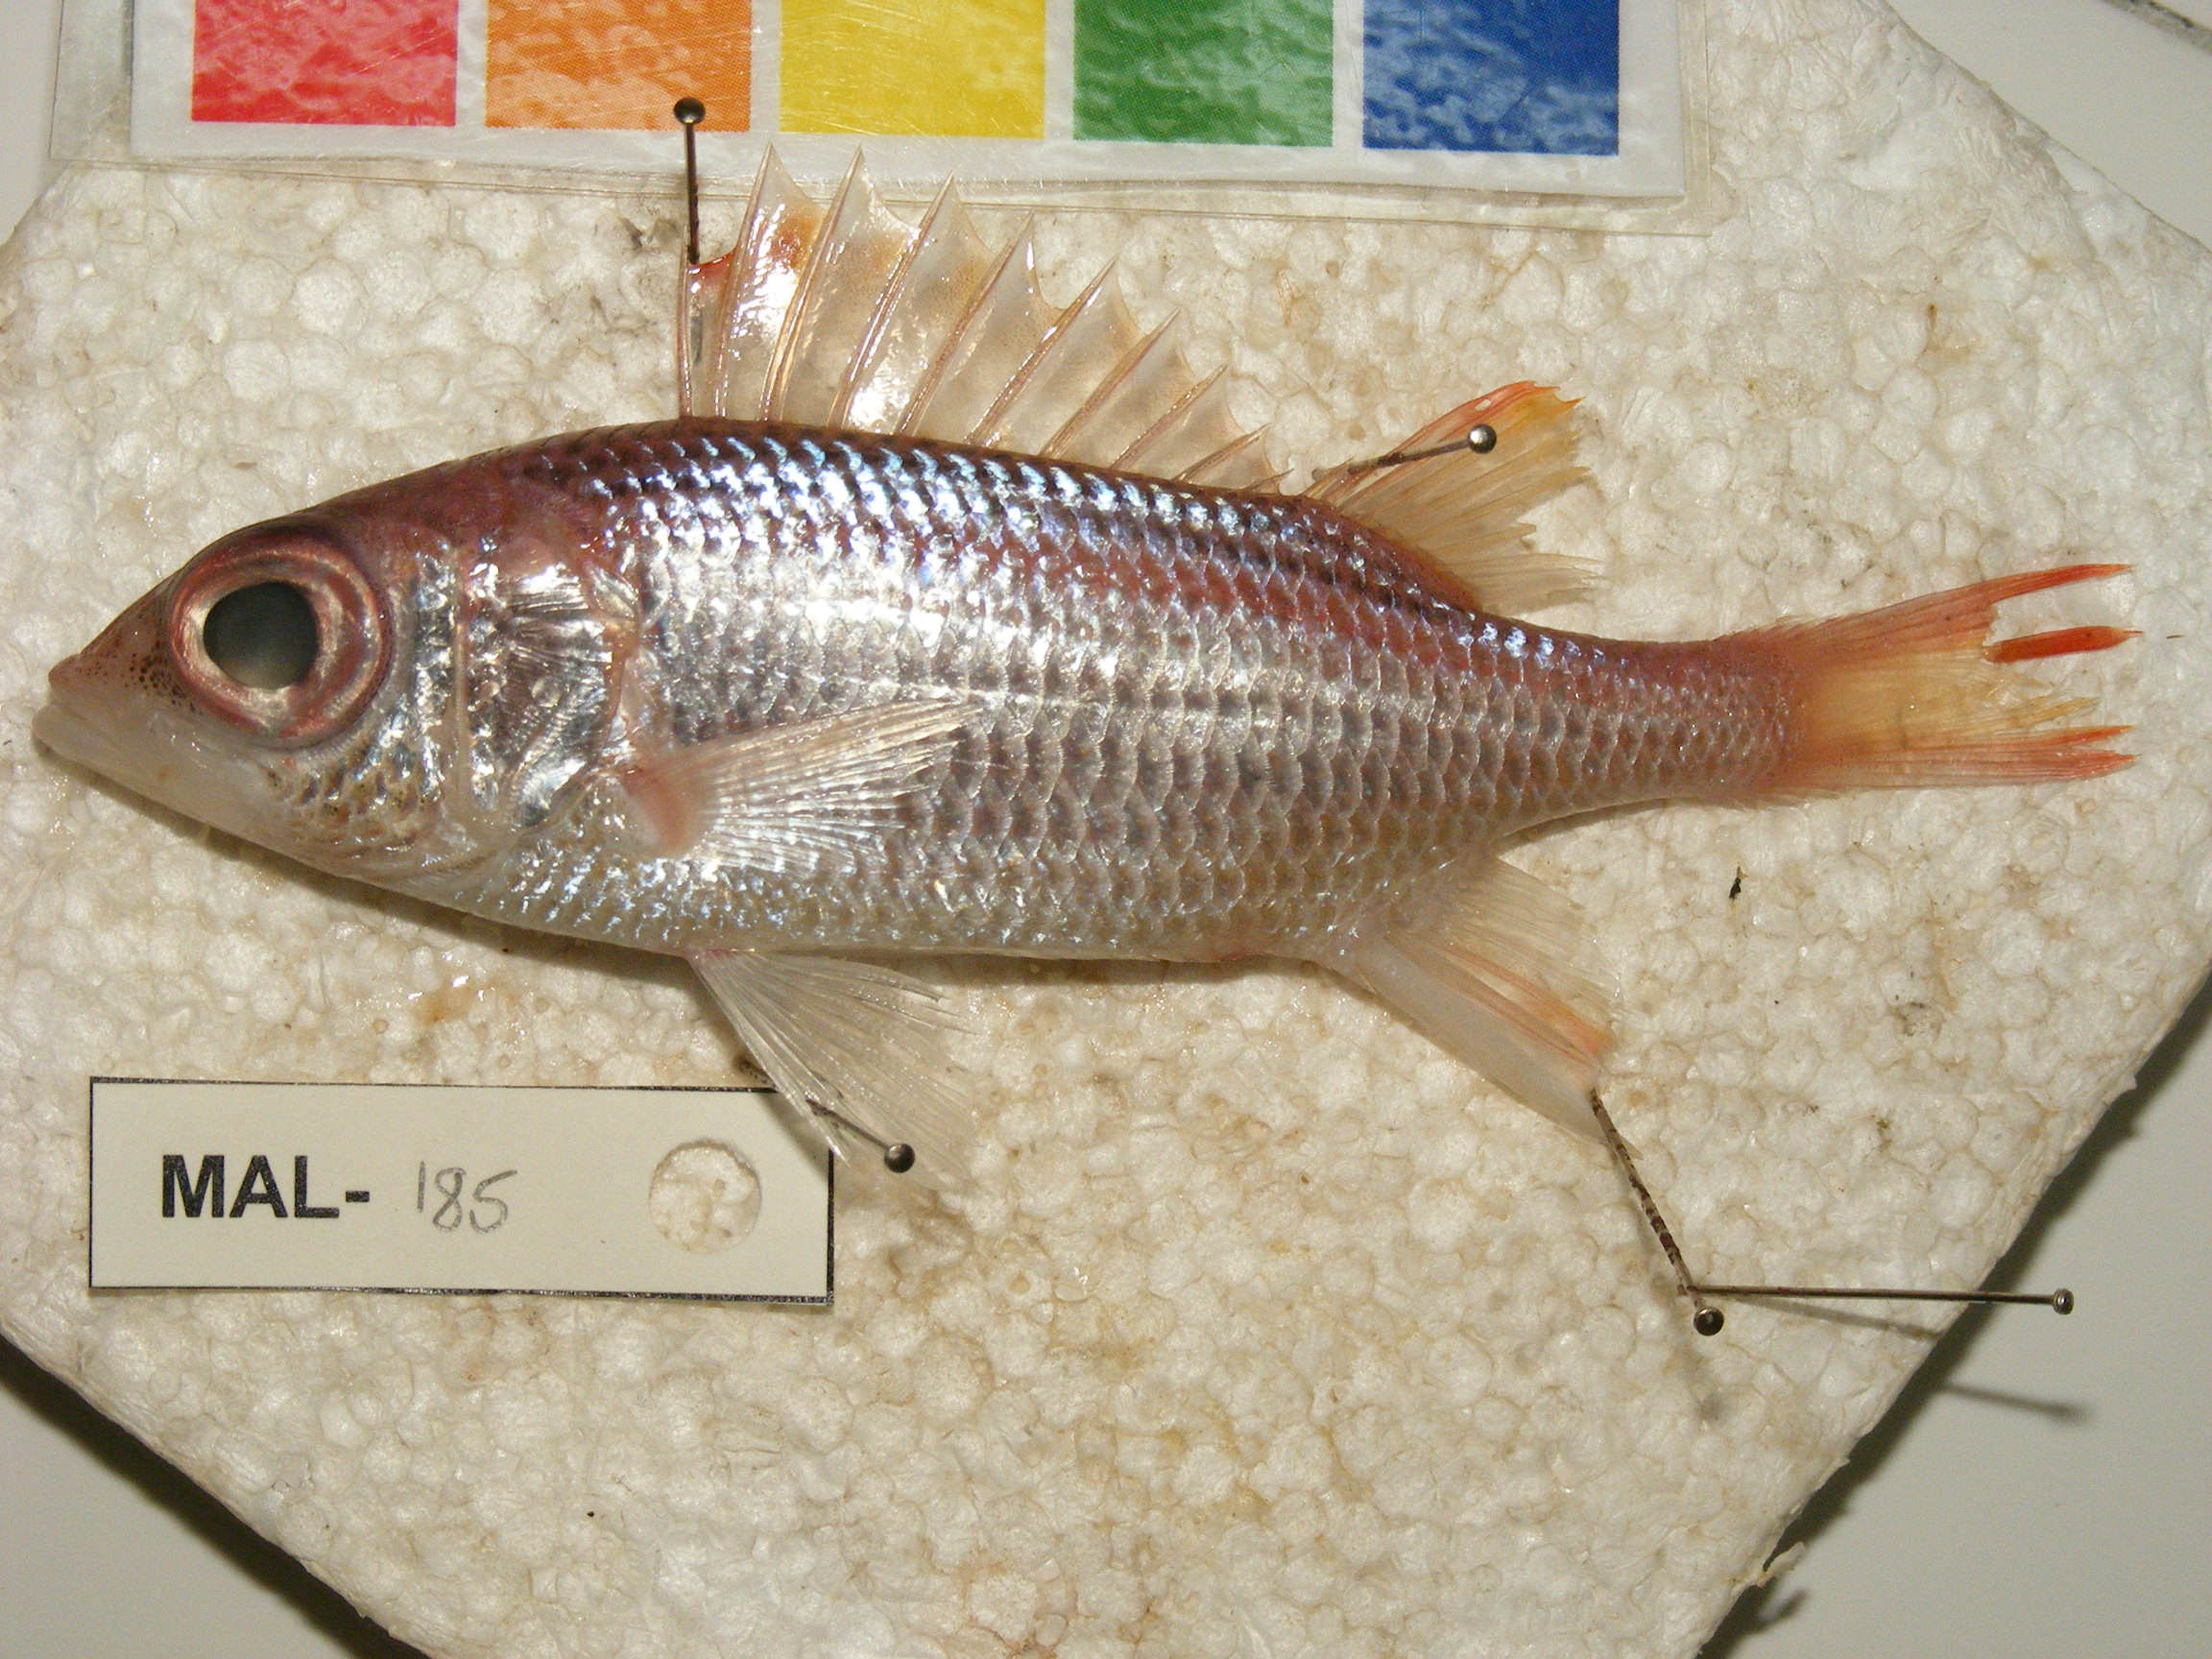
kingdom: Animalia
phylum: Chordata
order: Beryciformes
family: Holocentridae
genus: Neoniphon
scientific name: Neoniphon argenteus
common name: Clearfin squirrelfish
